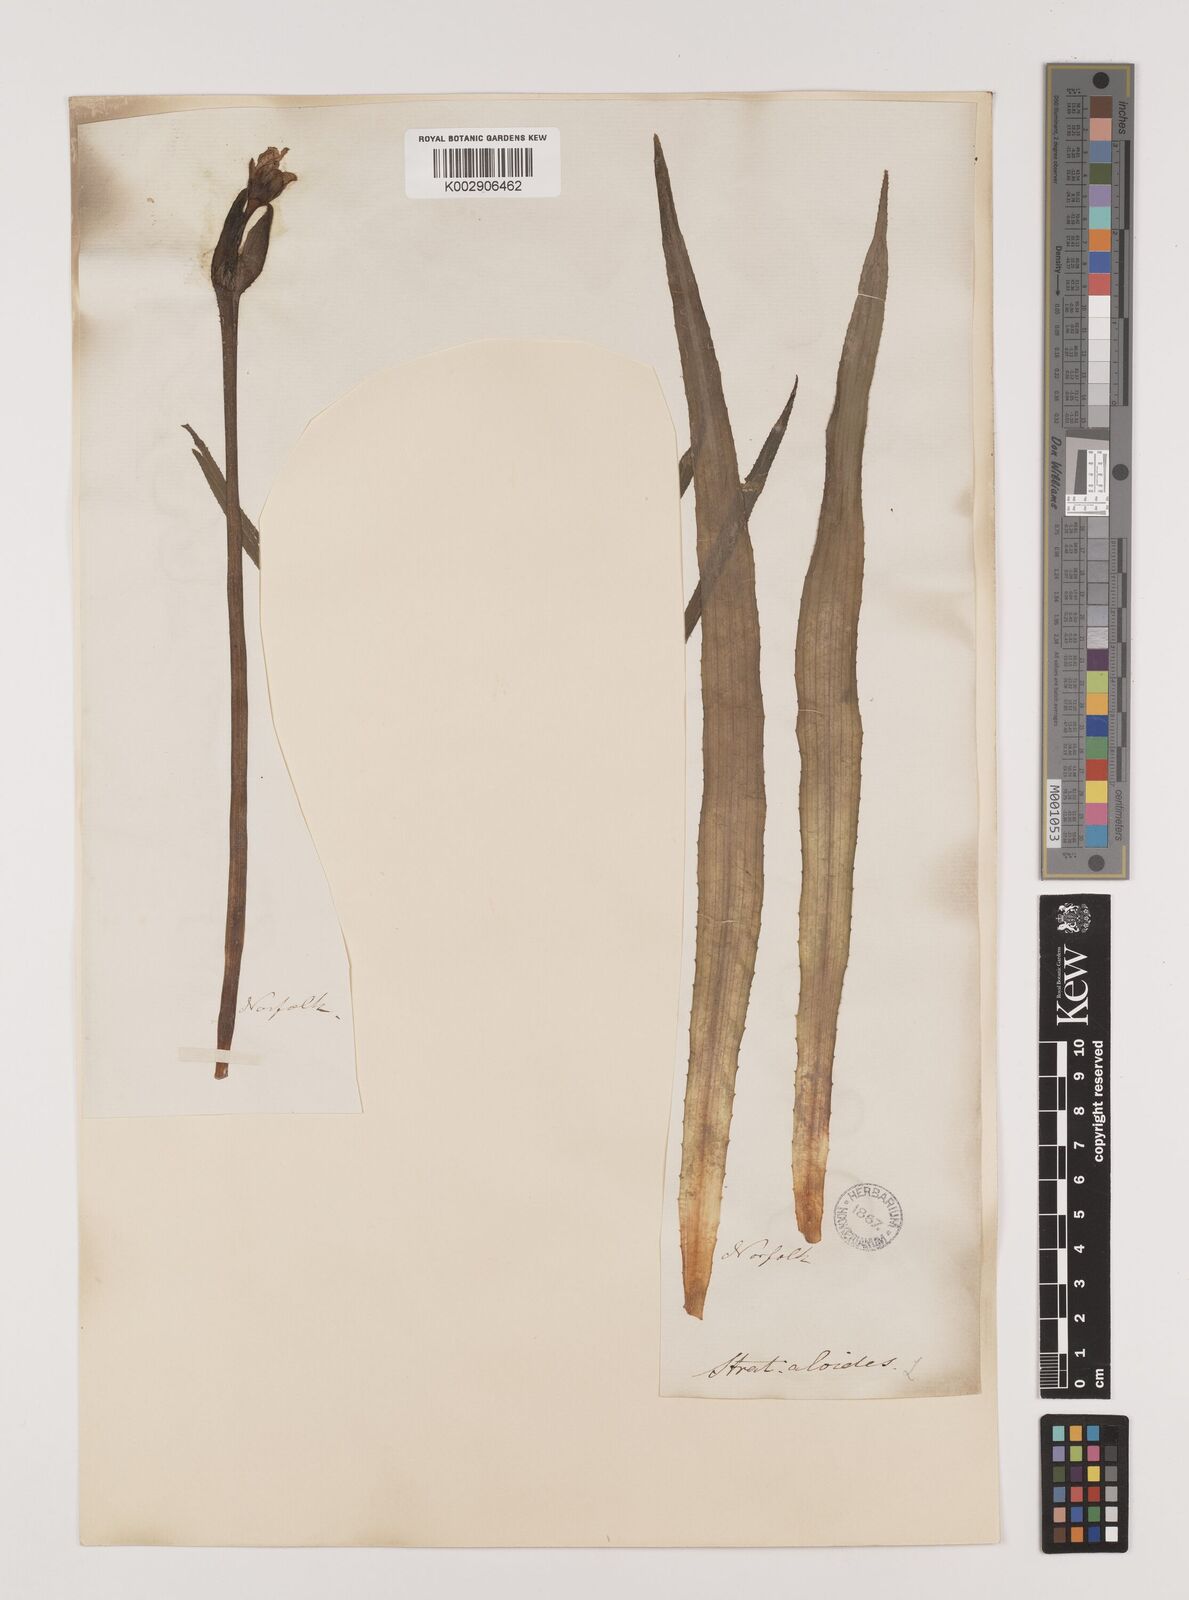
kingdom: Plantae
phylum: Tracheophyta
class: Liliopsida
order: Alismatales
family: Hydrocharitaceae
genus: Stratiotes
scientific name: Stratiotes aloides
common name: Water-soldier
